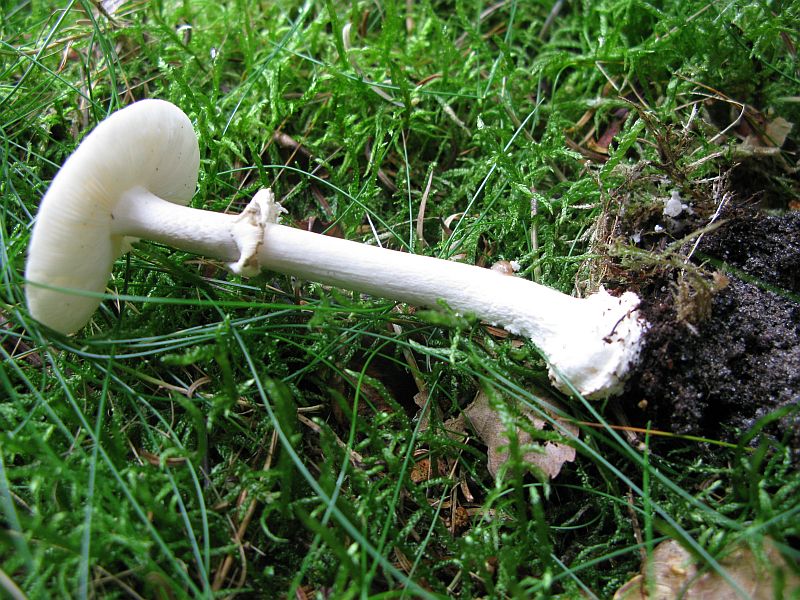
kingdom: Fungi
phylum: Basidiomycota
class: Agaricomycetes
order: Agaricales
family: Amanitaceae
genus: Amanita
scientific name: Amanita porphyria
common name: porfyr-fluesvamp
